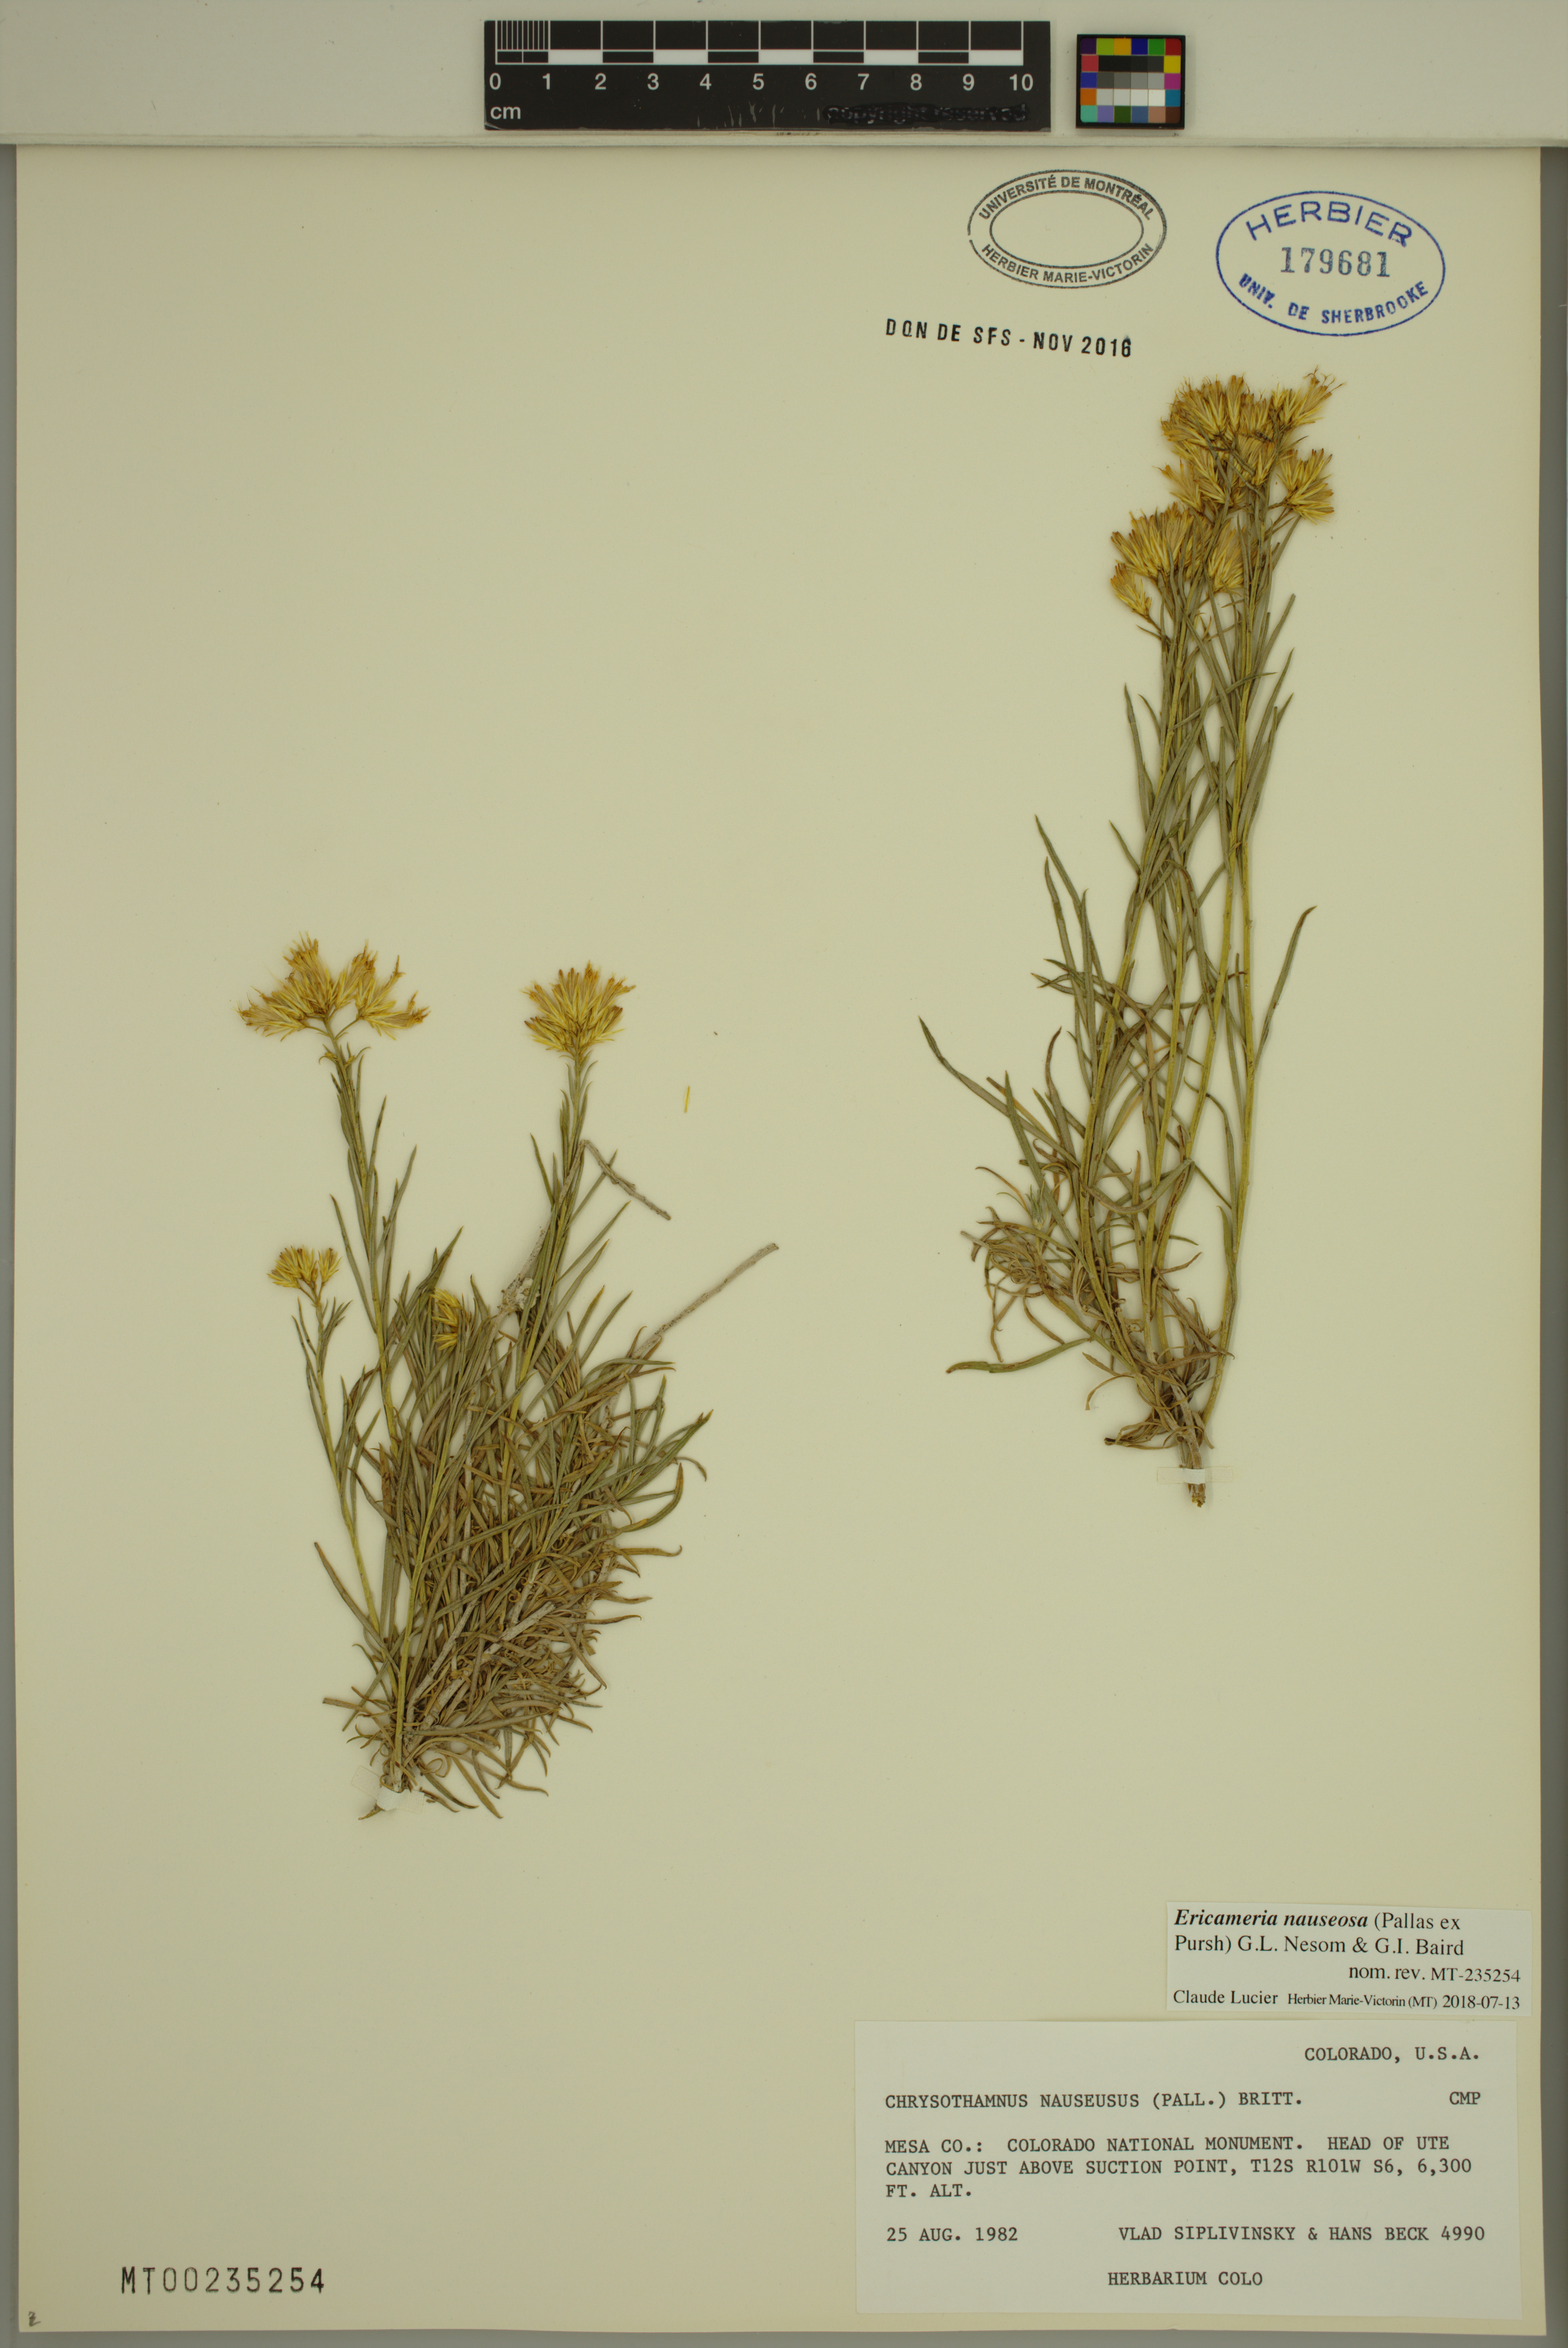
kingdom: Plantae
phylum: Tracheophyta
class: Magnoliopsida
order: Asterales
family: Asteraceae
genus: Ericameria
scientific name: Ericameria nauseosa
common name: Rubber rabbitbrush
